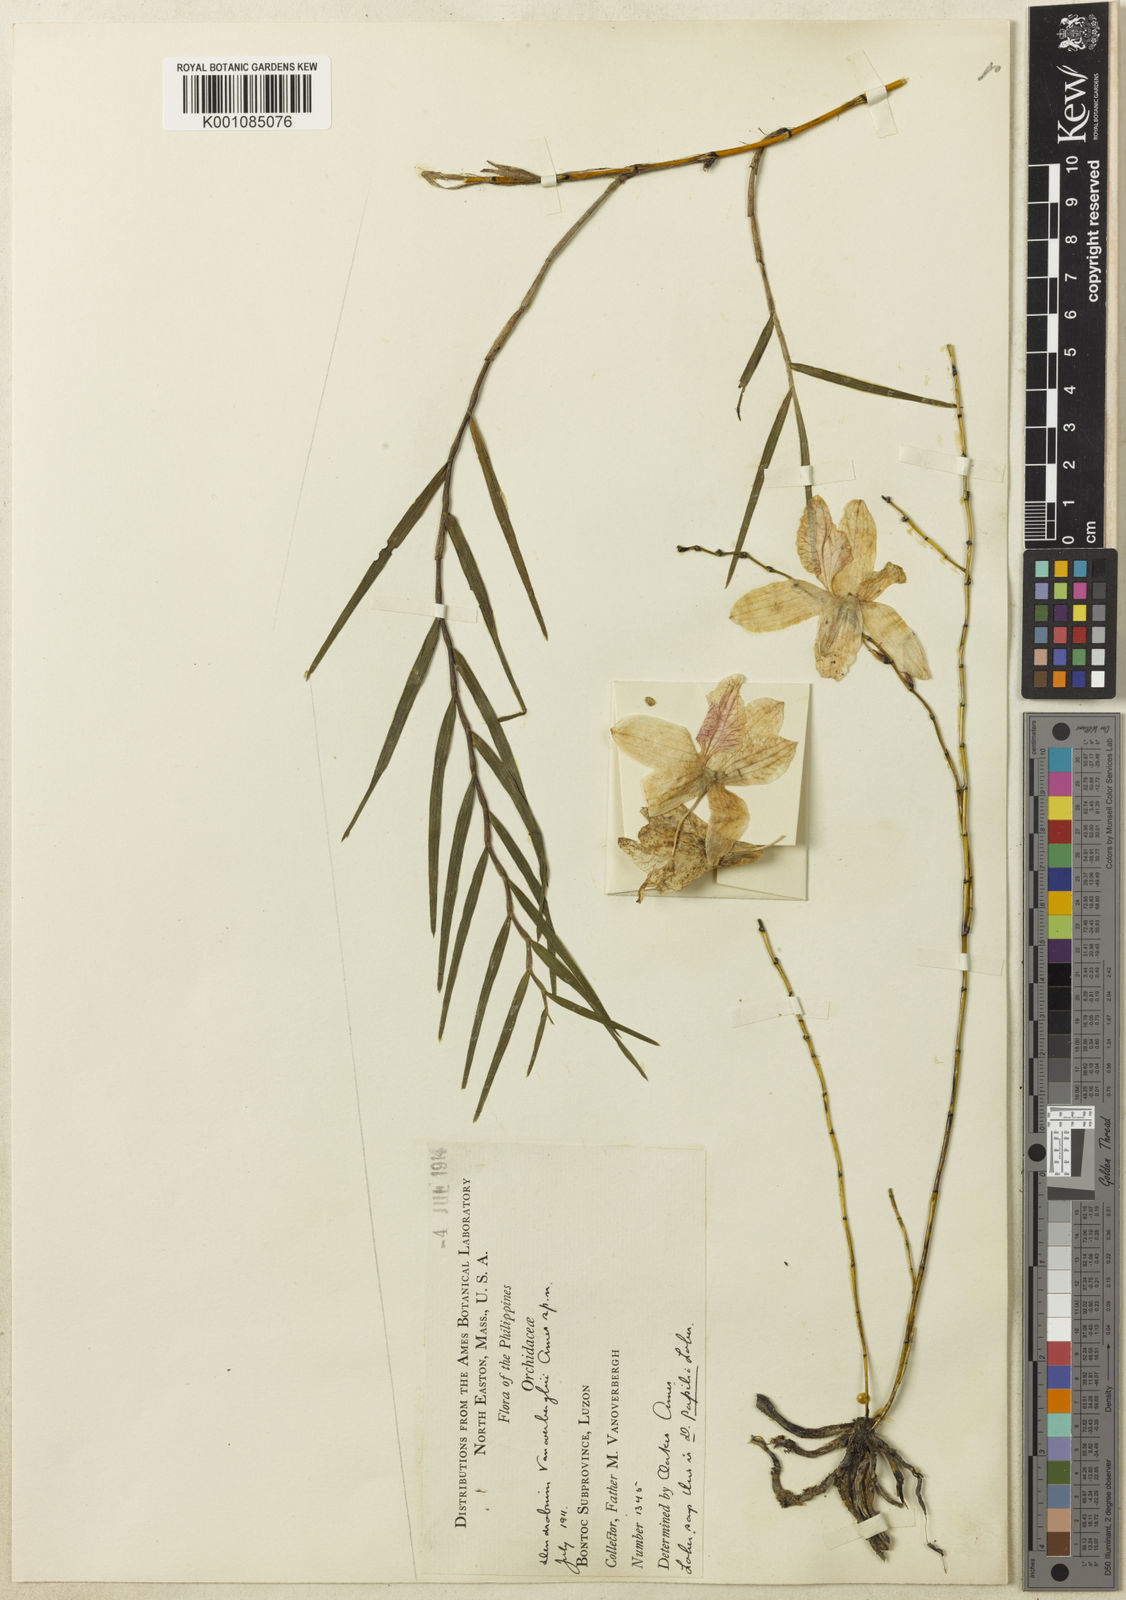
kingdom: Plantae
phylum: Tracheophyta
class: Liliopsida
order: Asparagales
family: Orchidaceae
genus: Dendrobium
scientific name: Dendrobium papilio
